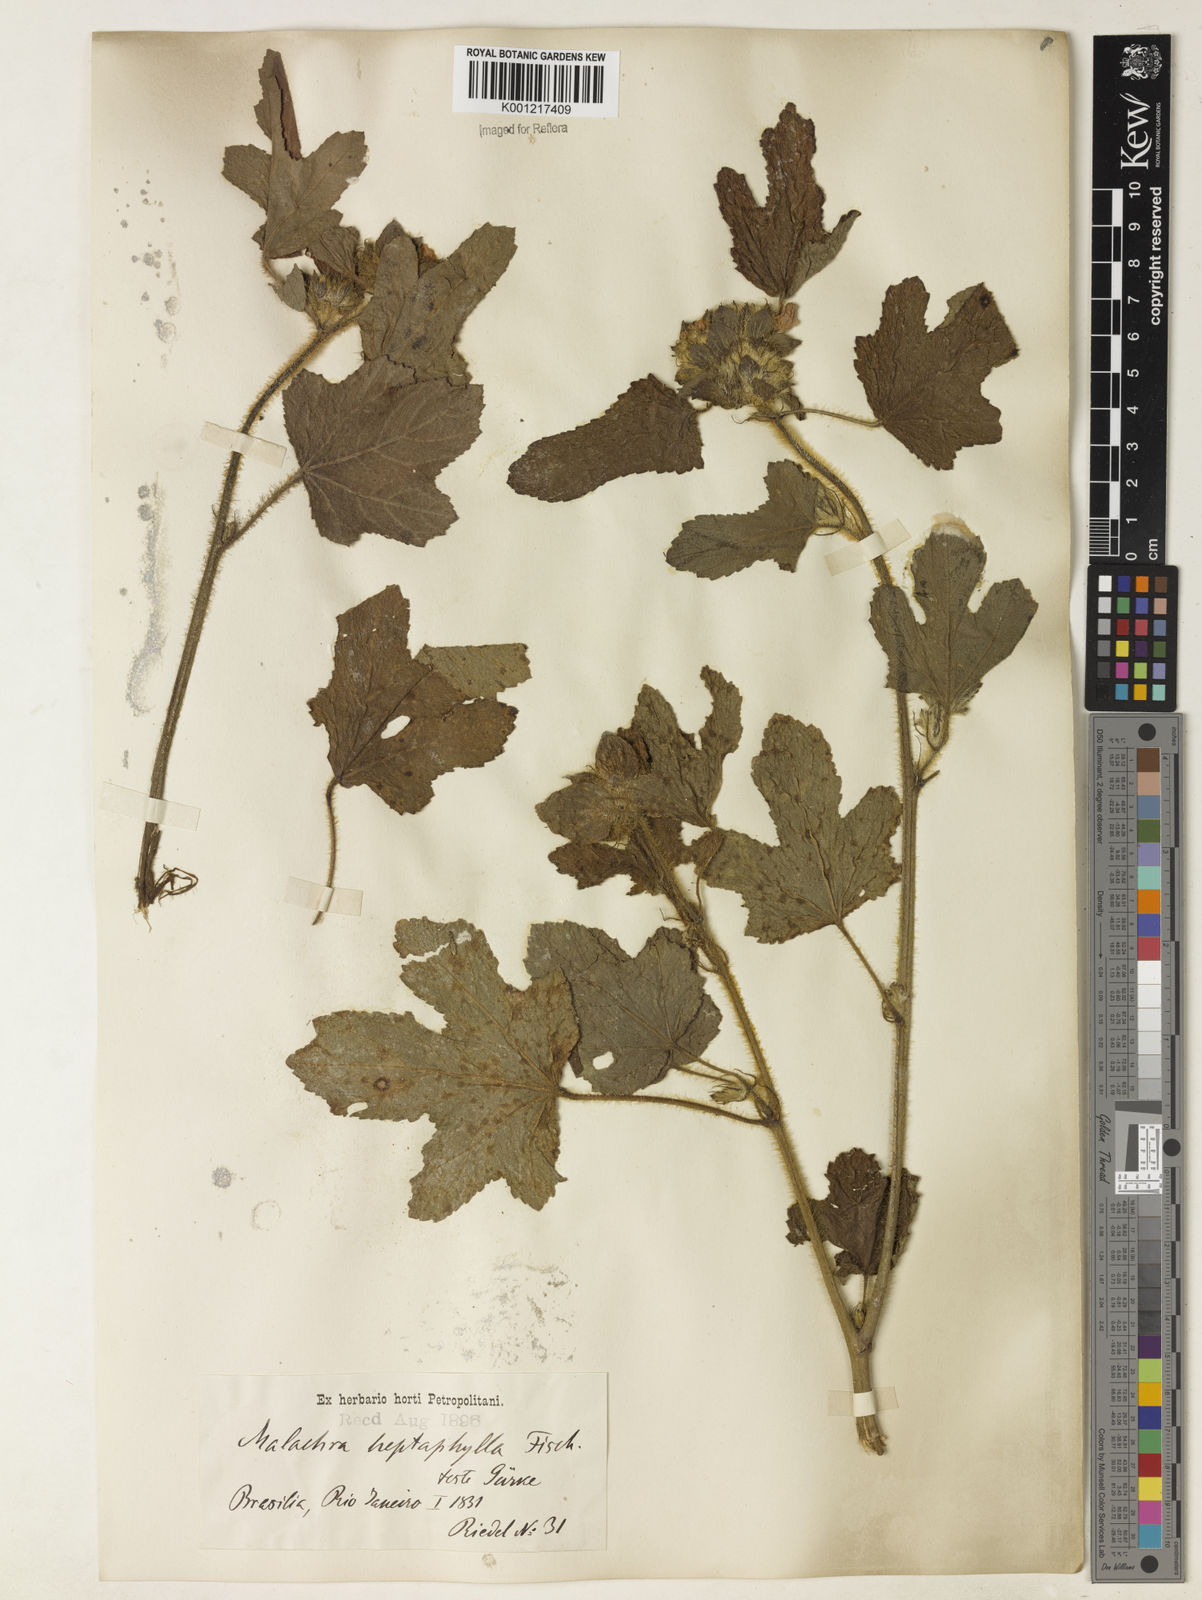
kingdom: Plantae
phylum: Tracheophyta
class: Magnoliopsida
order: Malvales
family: Malvaceae
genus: Malachra
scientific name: Malachra capitata
